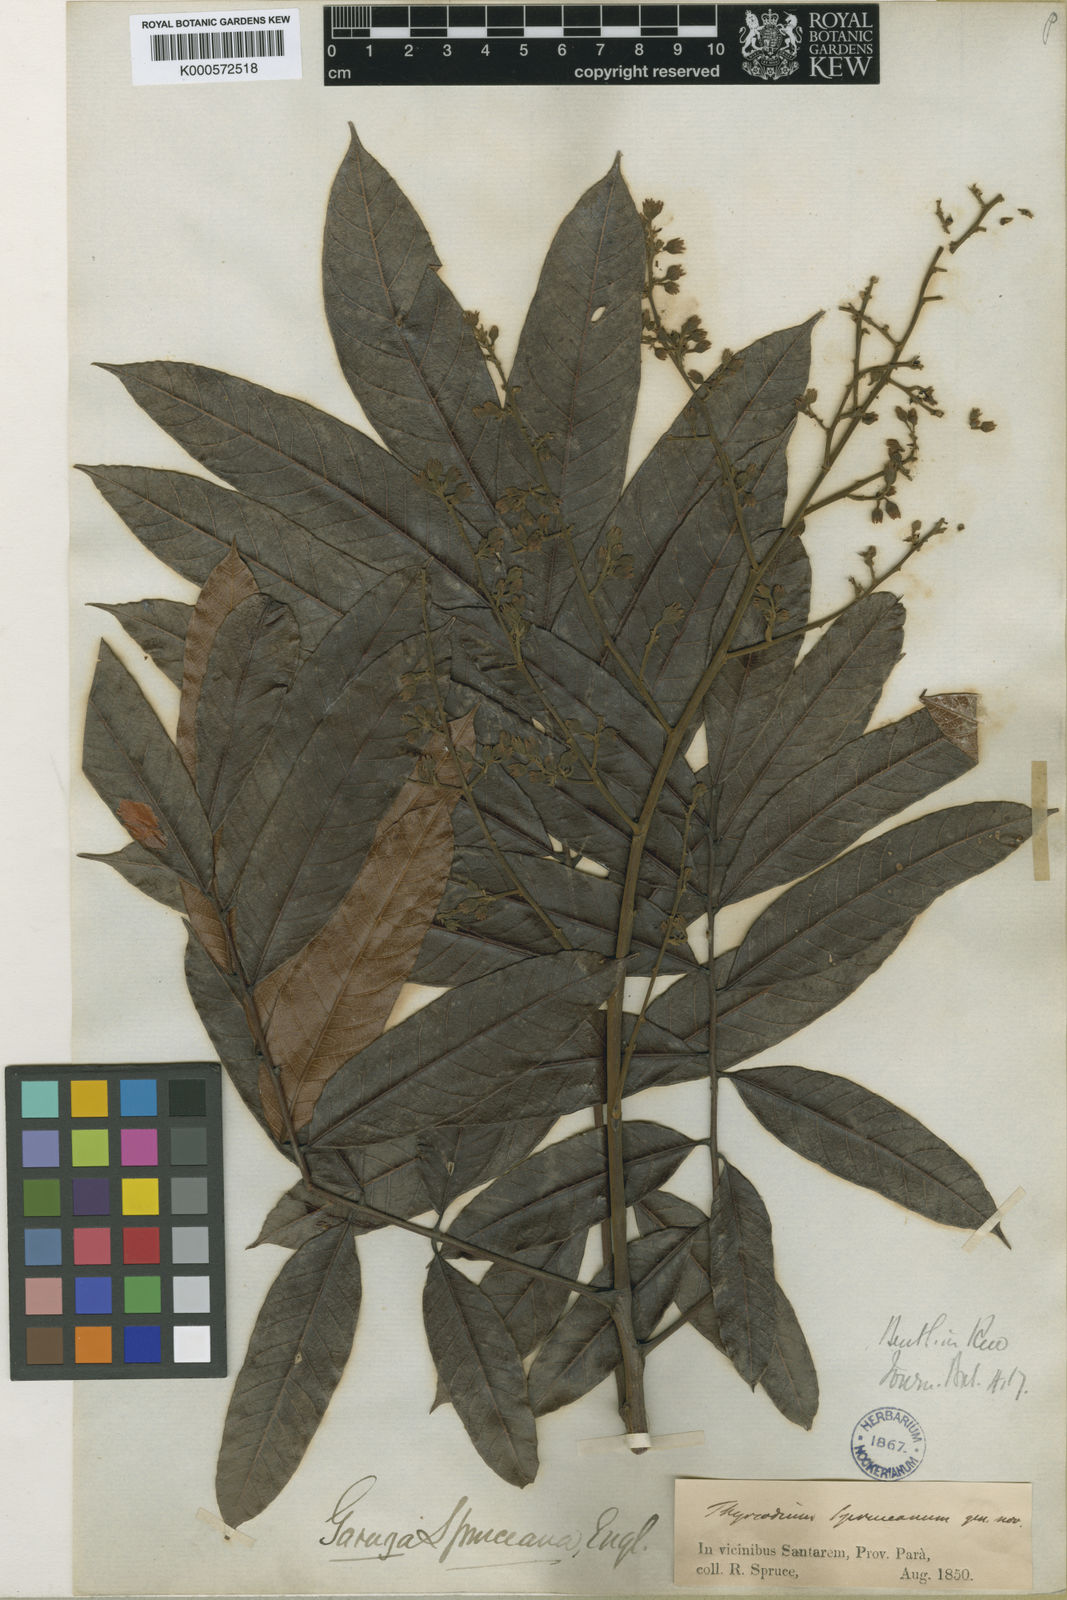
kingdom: Plantae
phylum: Tracheophyta
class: Magnoliopsida
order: Sapindales
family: Anacardiaceae
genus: Thyrsodium
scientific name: Thyrsodium spruceanum
